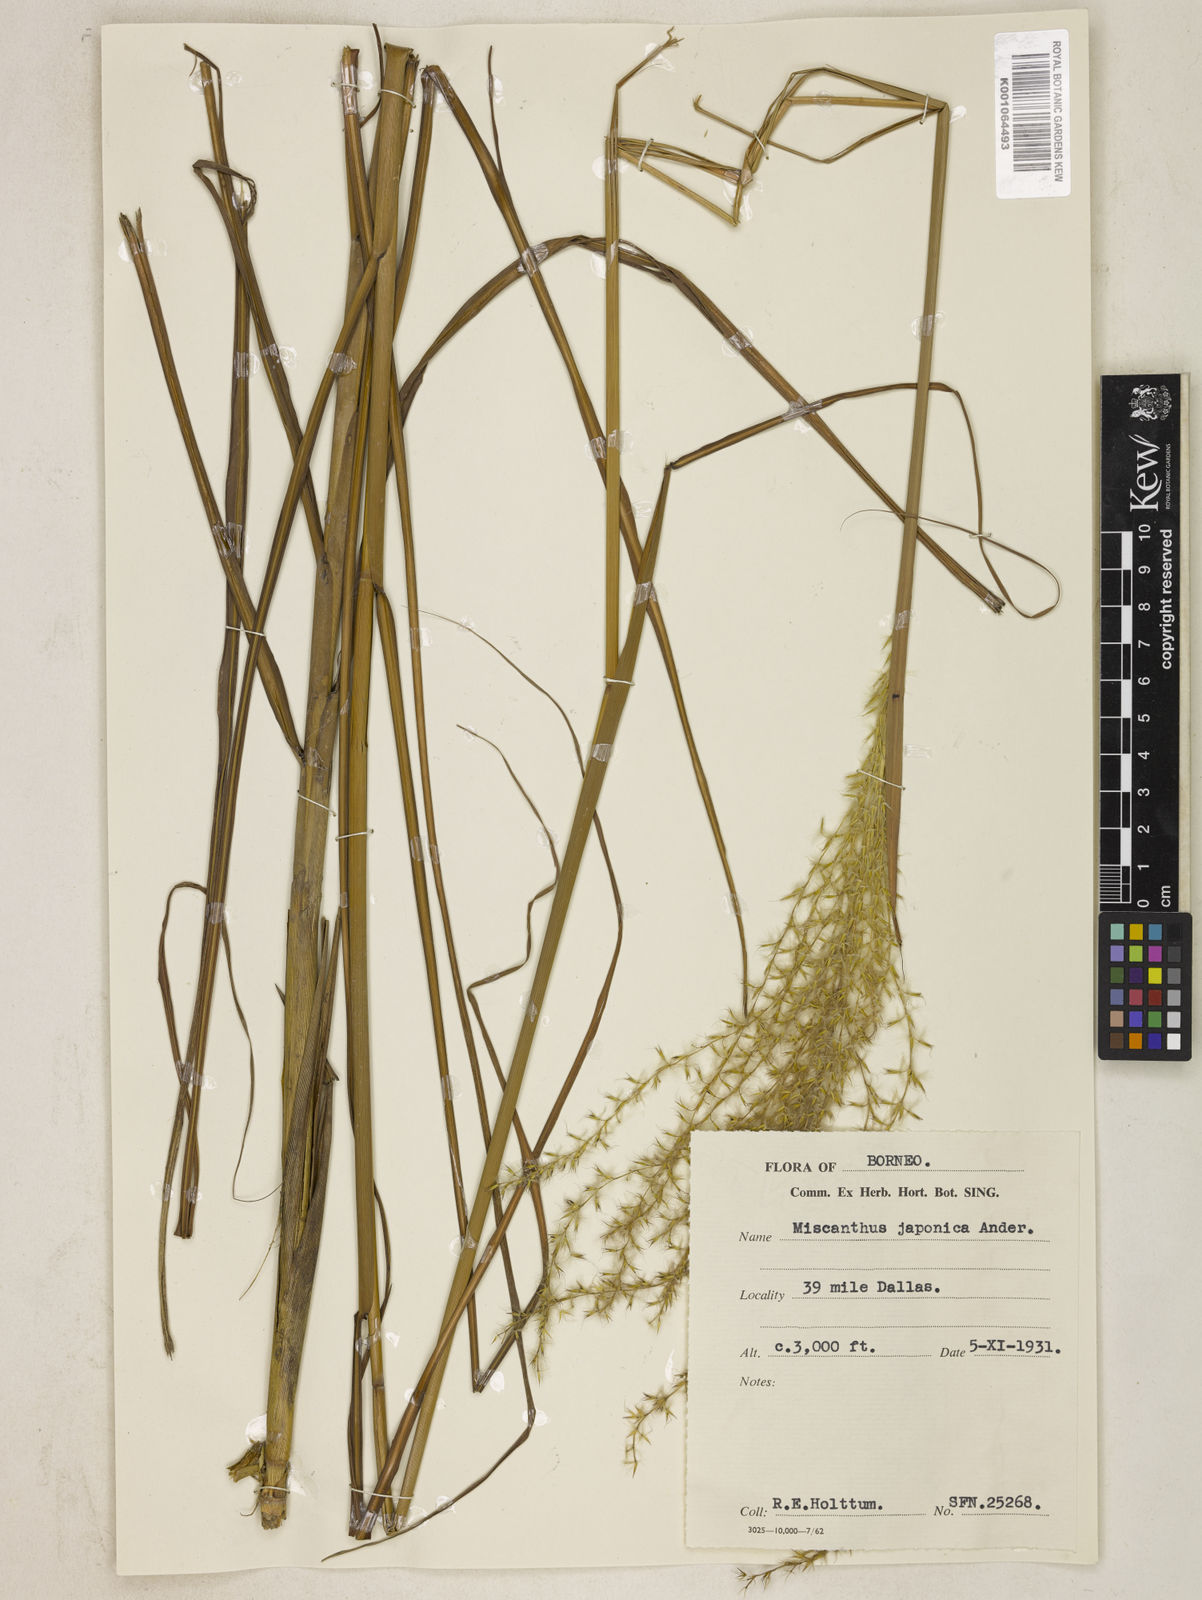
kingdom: Plantae
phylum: Tracheophyta
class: Liliopsida
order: Poales
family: Poaceae
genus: Miscanthus
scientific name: Miscanthus sinensis
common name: Chinese silvergrass
